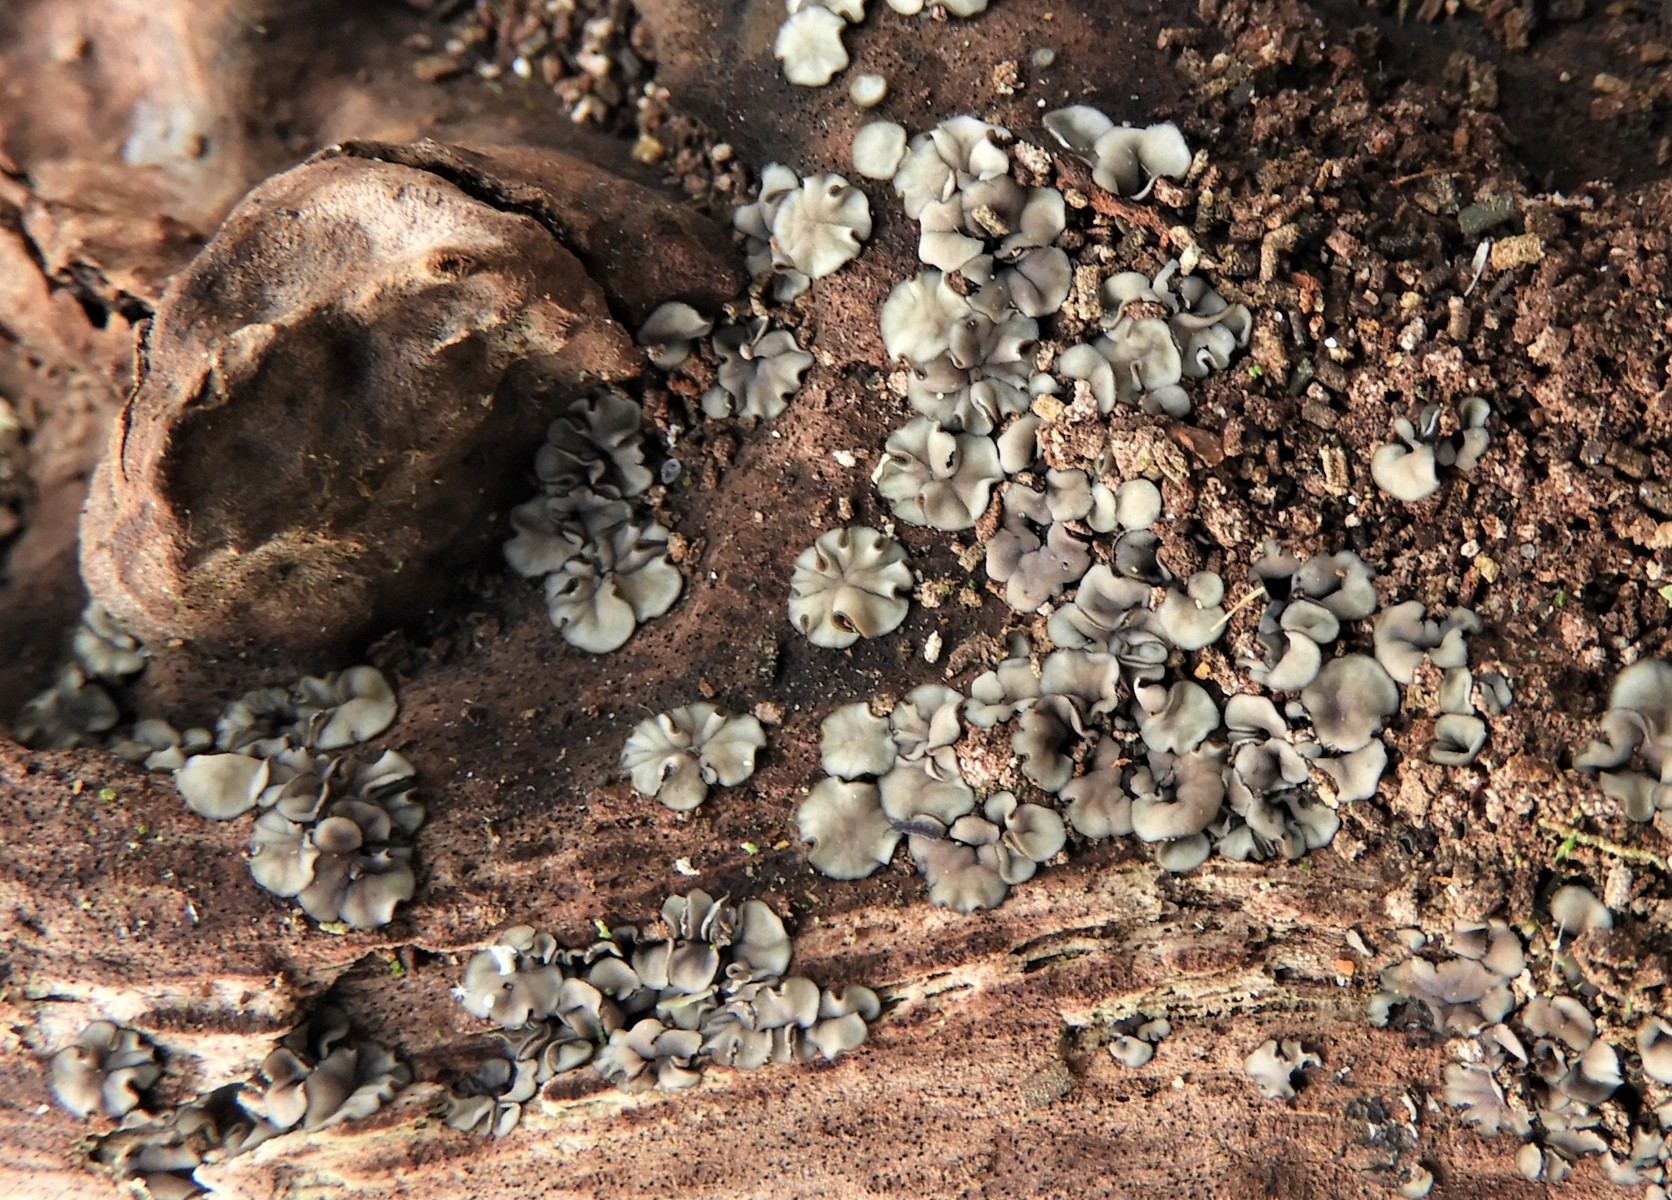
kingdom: Fungi
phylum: Ascomycota
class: Leotiomycetes
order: Helotiales
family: Mollisiaceae
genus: Mollisia
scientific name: Mollisia cinerea
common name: almindelig gråskive
